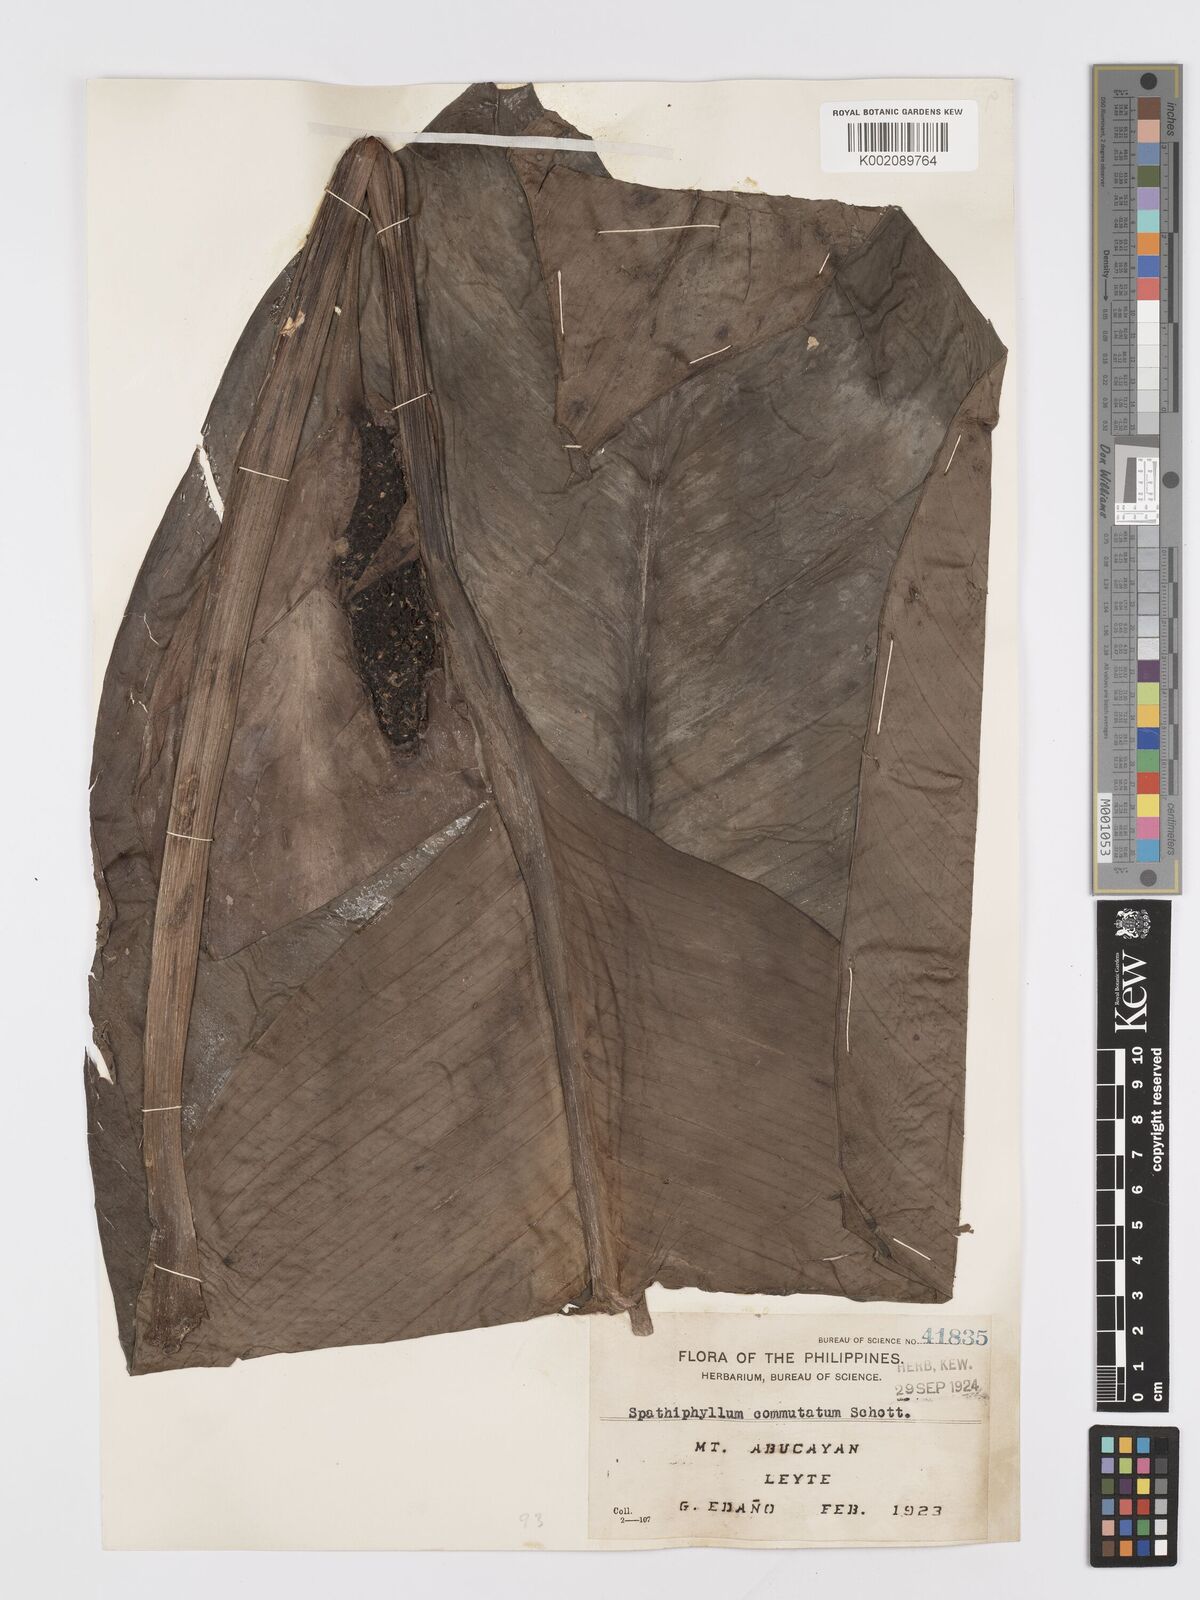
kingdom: Plantae
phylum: Tracheophyta
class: Liliopsida
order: Alismatales
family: Araceae
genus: Spathiphyllum
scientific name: Spathiphyllum commutatum
